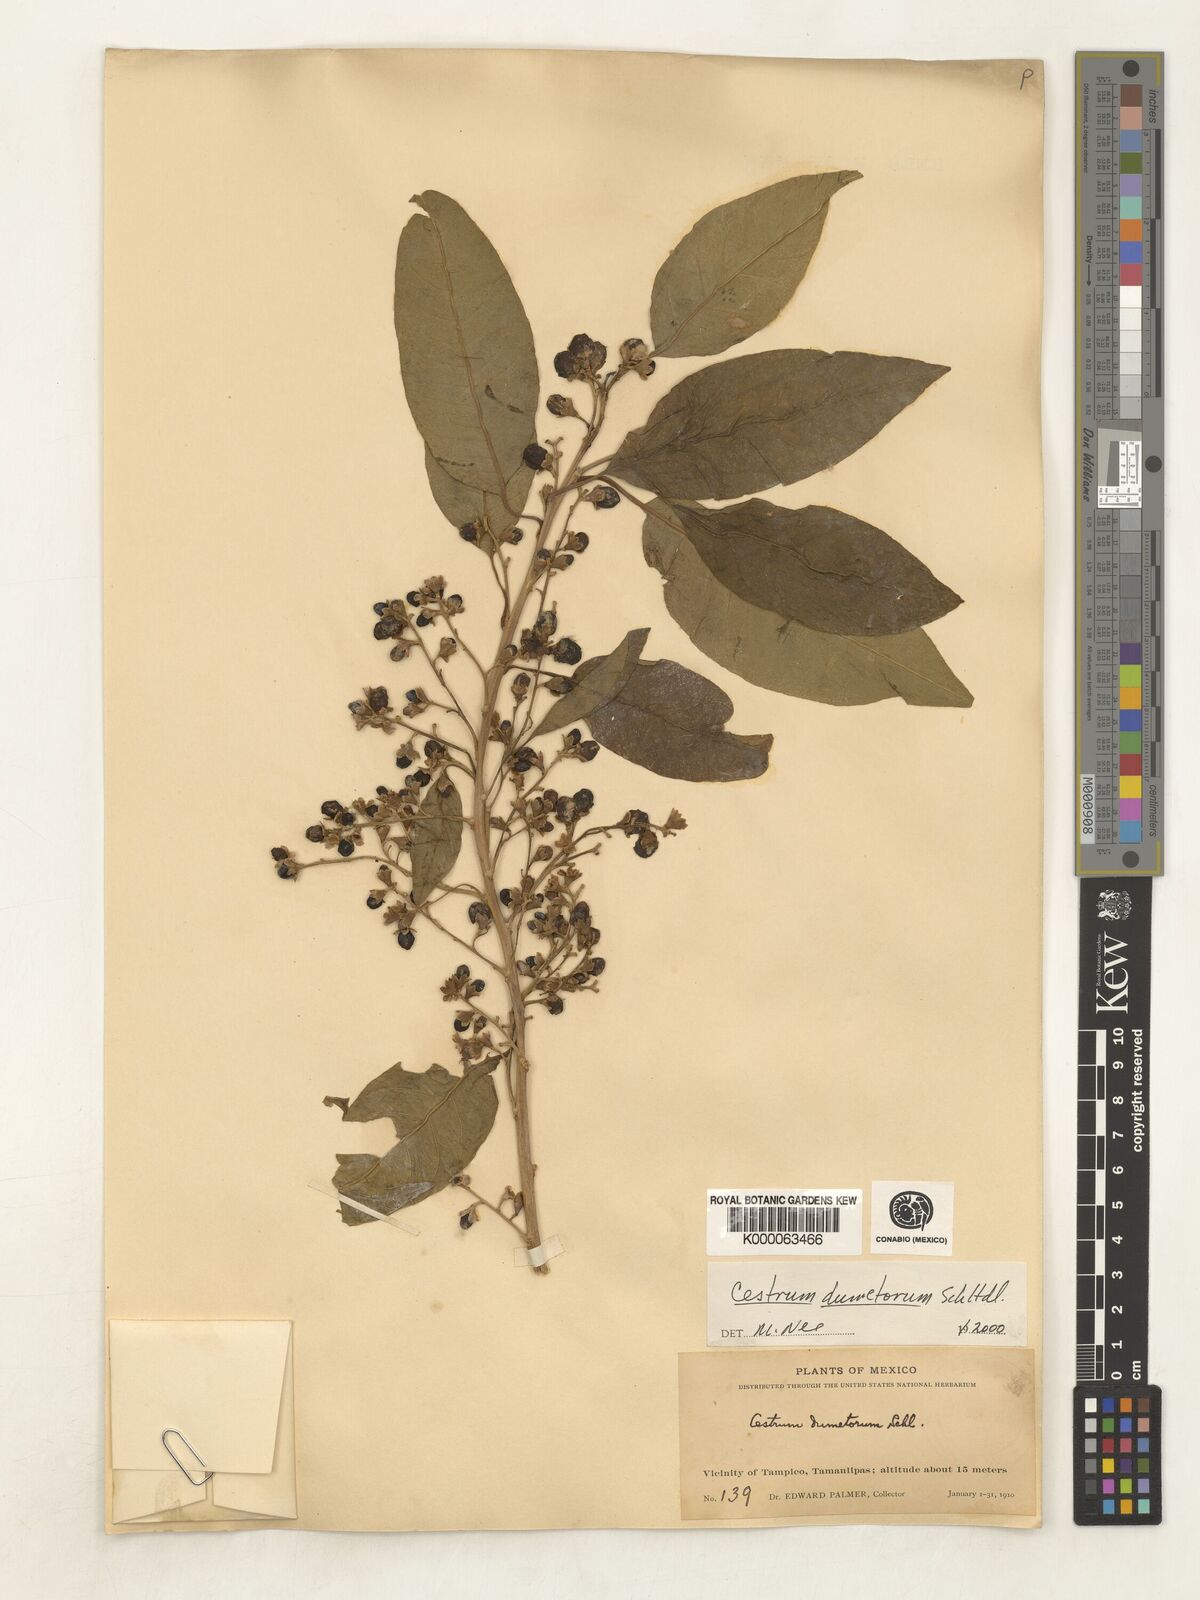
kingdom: Plantae
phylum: Tracheophyta
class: Magnoliopsida
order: Solanales
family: Solanaceae
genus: Cestrum
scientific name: Cestrum dumetorum
